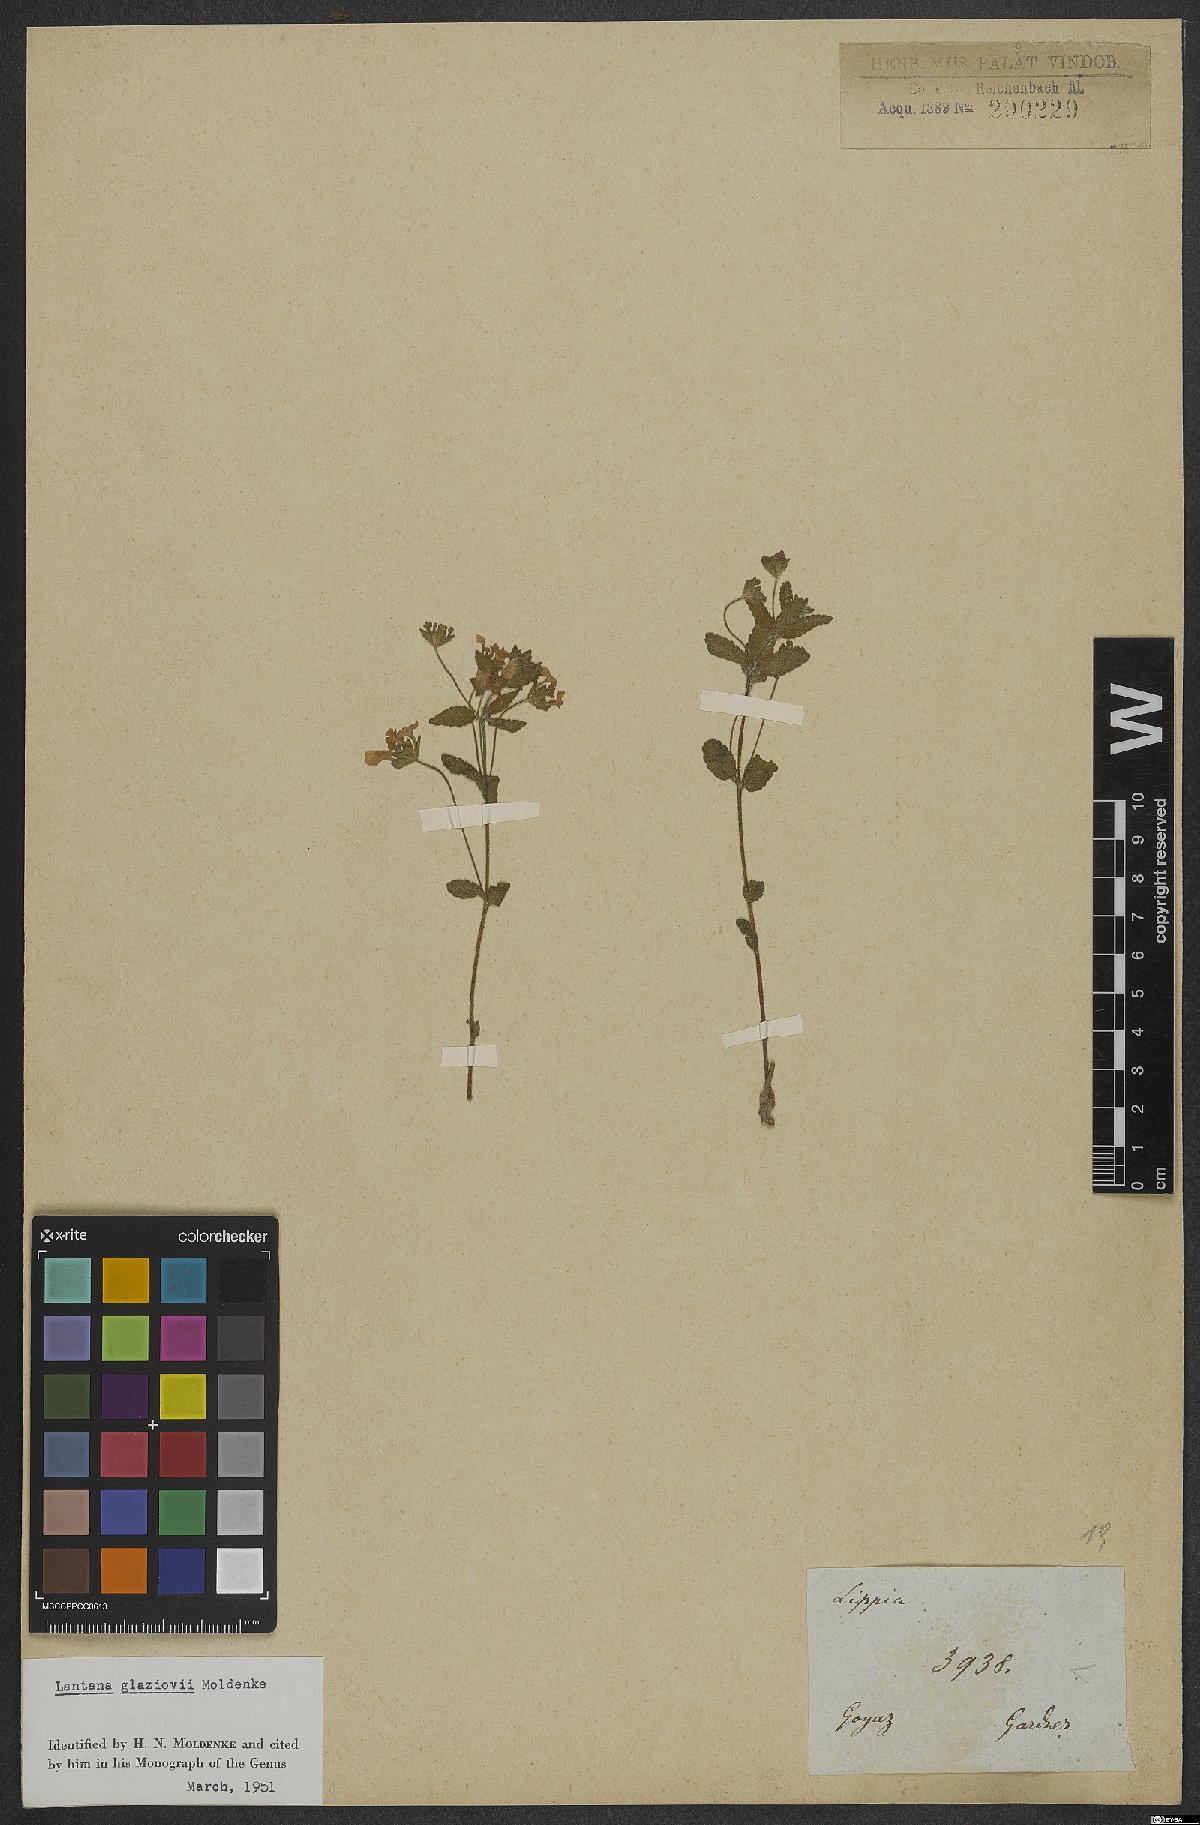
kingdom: Plantae
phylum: Tracheophyta
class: Magnoliopsida
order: Lamiales
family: Verbenaceae
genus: Lantana
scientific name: Lantana glaziovii
